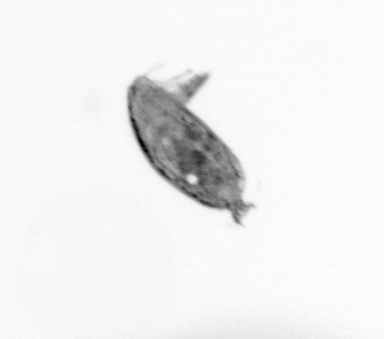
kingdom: Animalia
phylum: Arthropoda
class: Maxillopoda
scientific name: Maxillopoda
